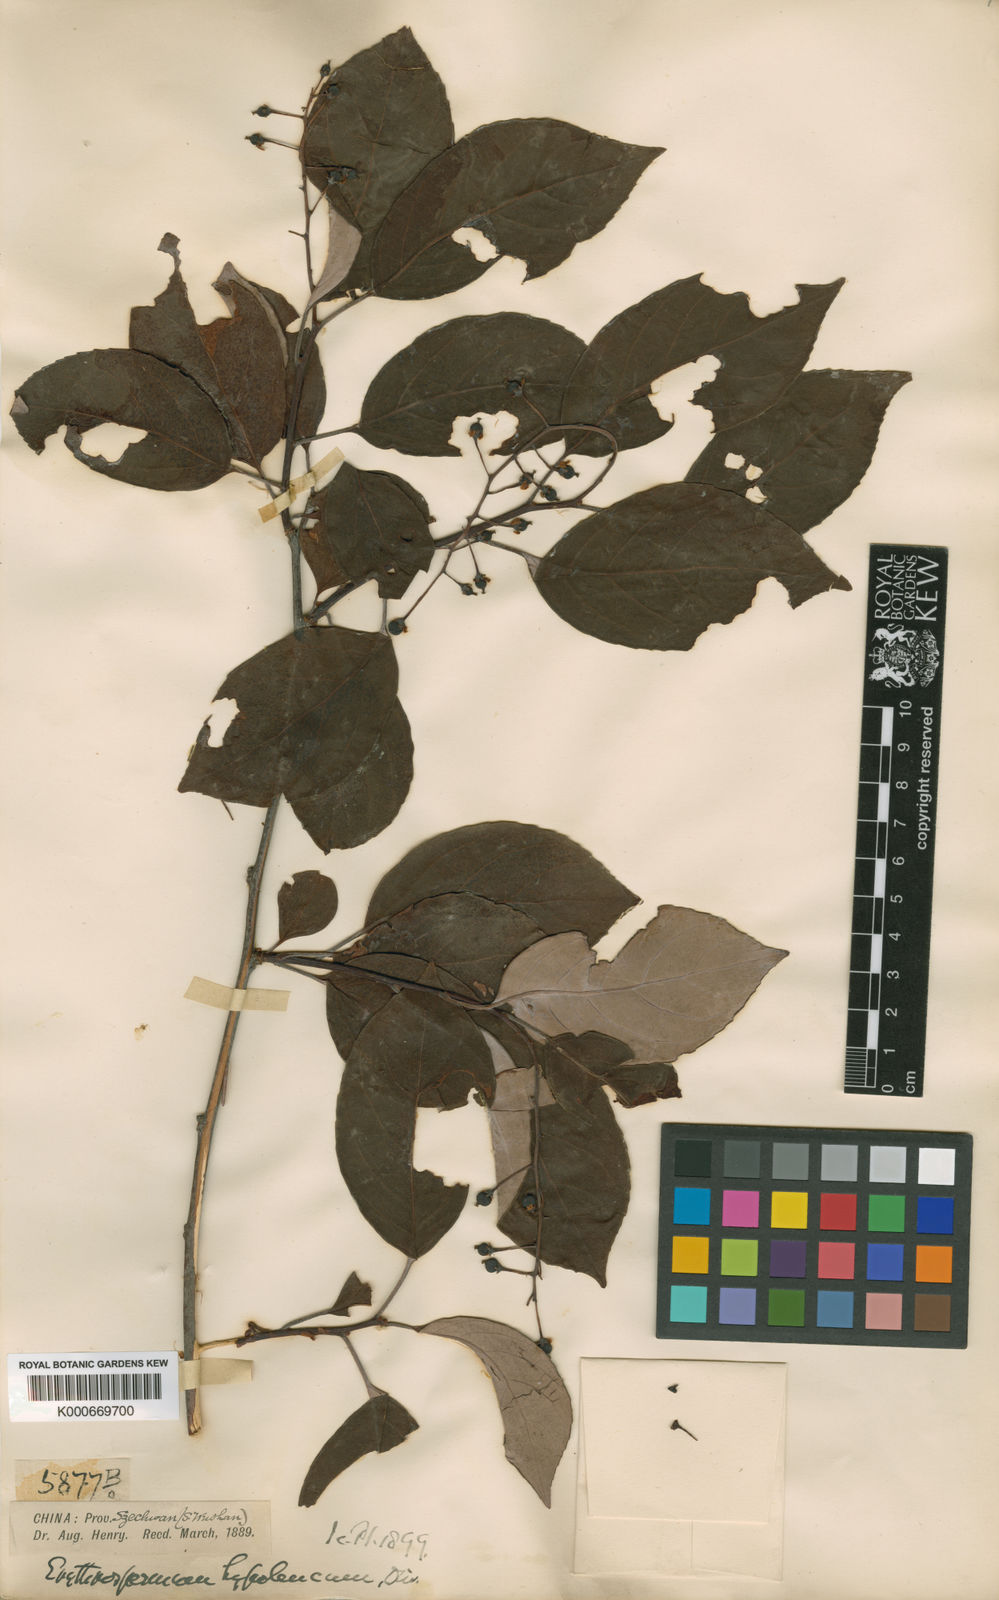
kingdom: Plantae
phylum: Tracheophyta
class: Magnoliopsida
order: Celastrales
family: Celastraceae
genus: Celastrus
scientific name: Celastrus hypoleucus
